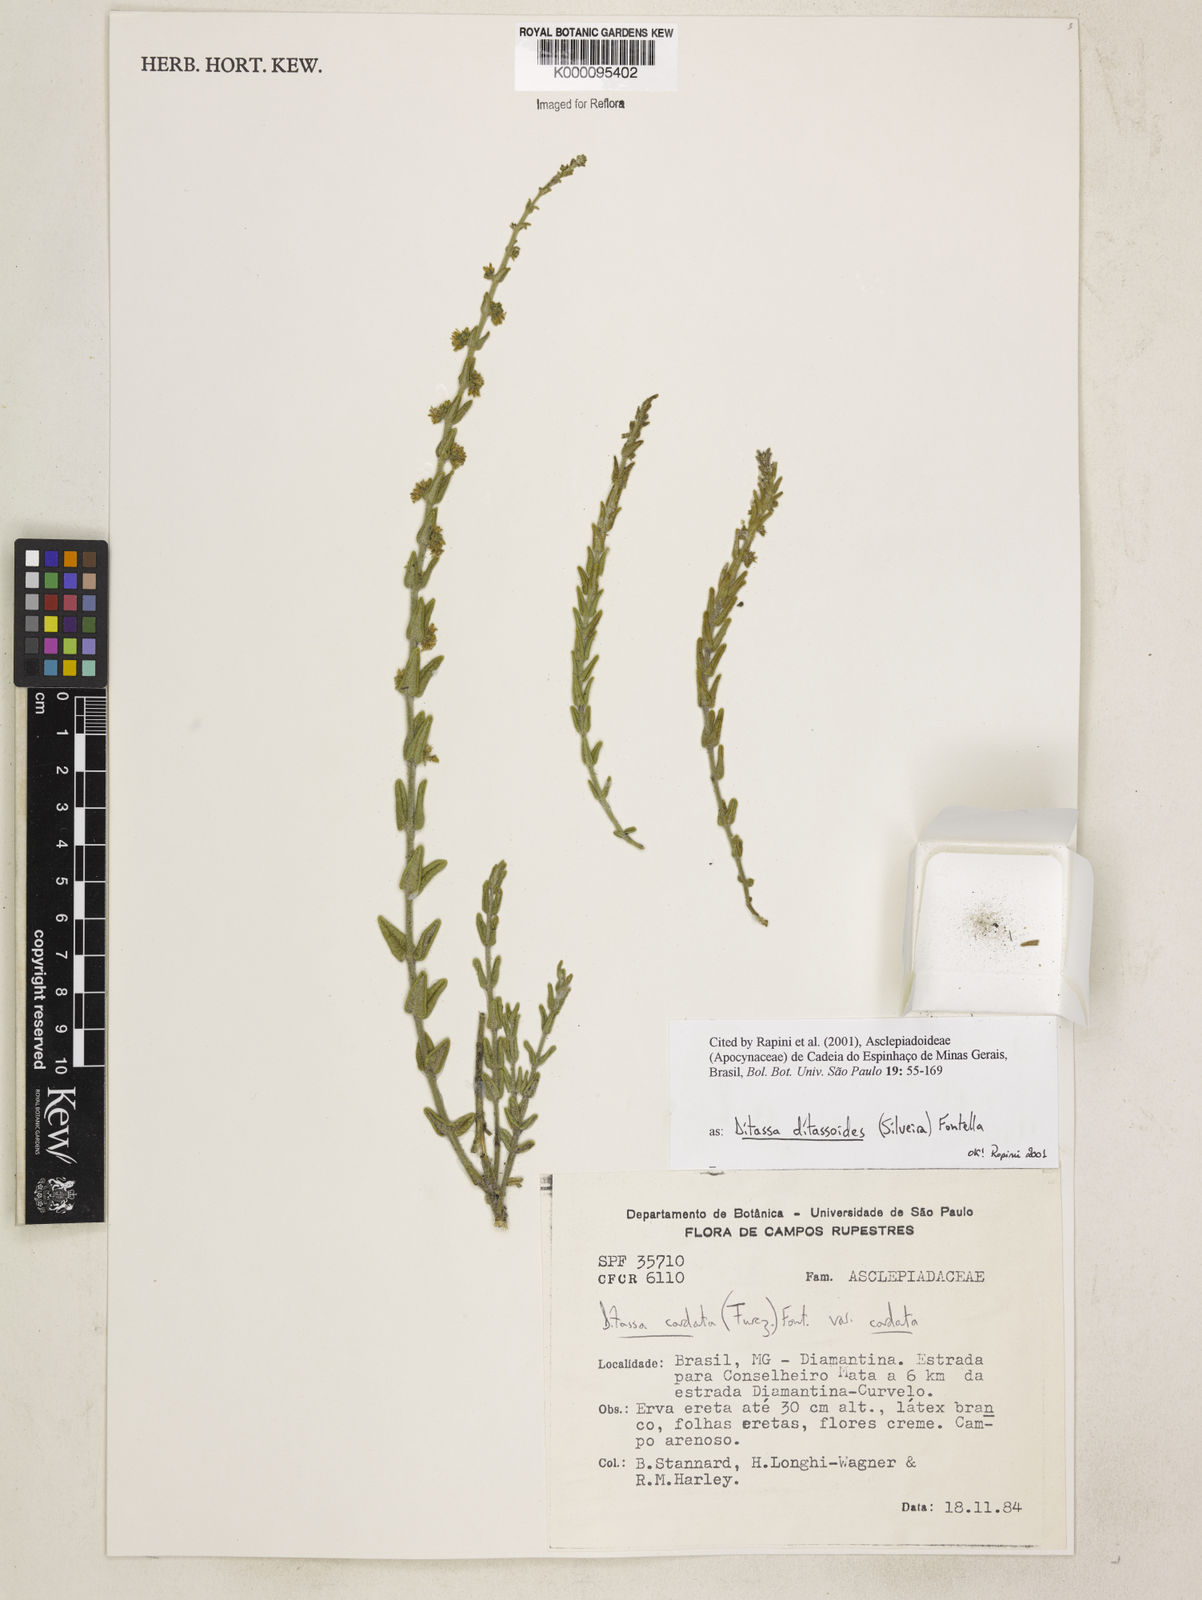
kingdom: Plantae
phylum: Tracheophyta
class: Magnoliopsida
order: Gentianales
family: Apocynaceae
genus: Minaria
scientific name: Minaria ditassoides
